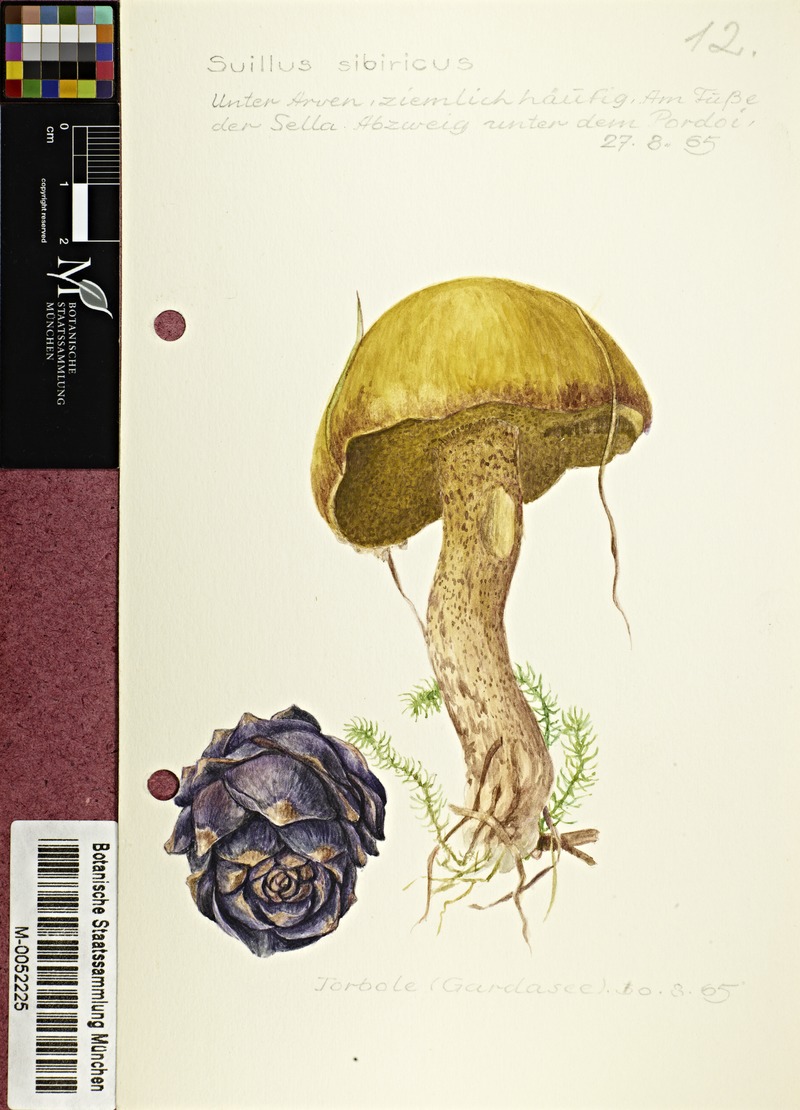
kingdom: Fungi
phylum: Basidiomycota
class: Agaricomycetes
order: Boletales
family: Suillaceae
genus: Suillus
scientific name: Suillus americanus
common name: Chicken fat mushroom
